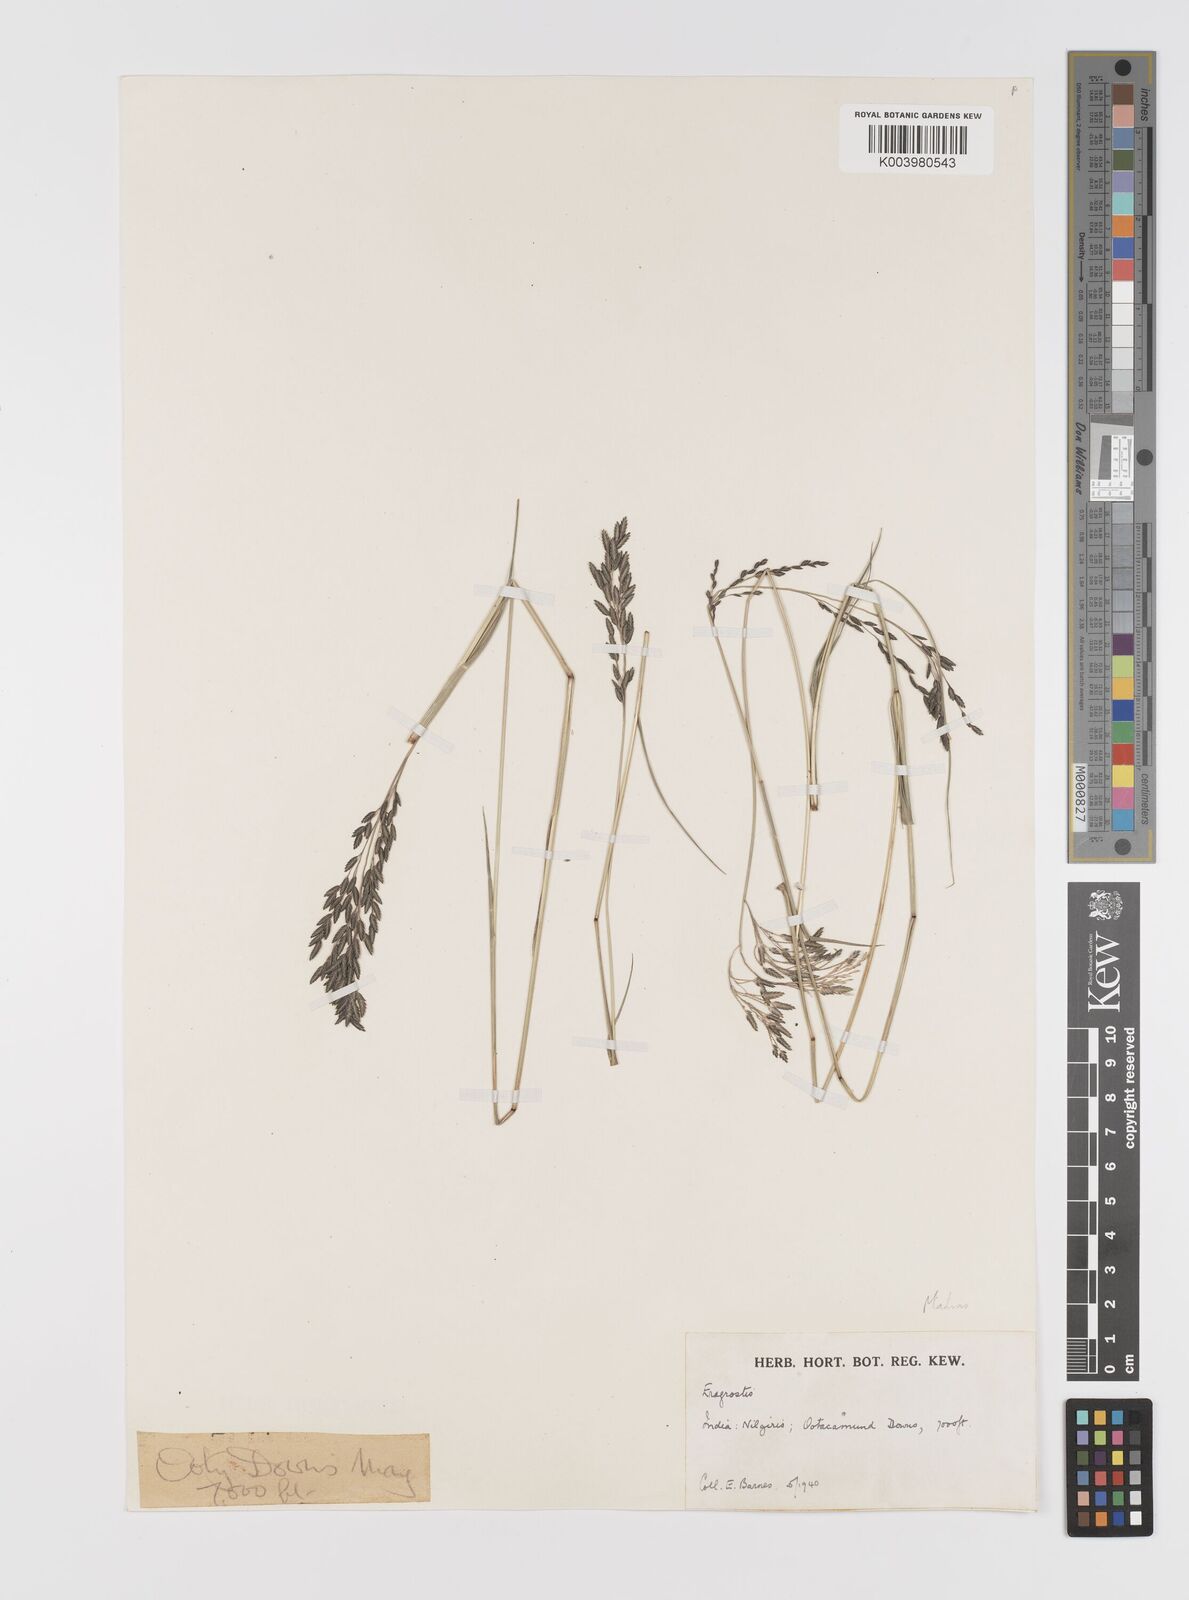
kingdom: Plantae
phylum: Tracheophyta
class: Liliopsida
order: Poales
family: Poaceae
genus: Eragrostis
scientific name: Eragrostis
